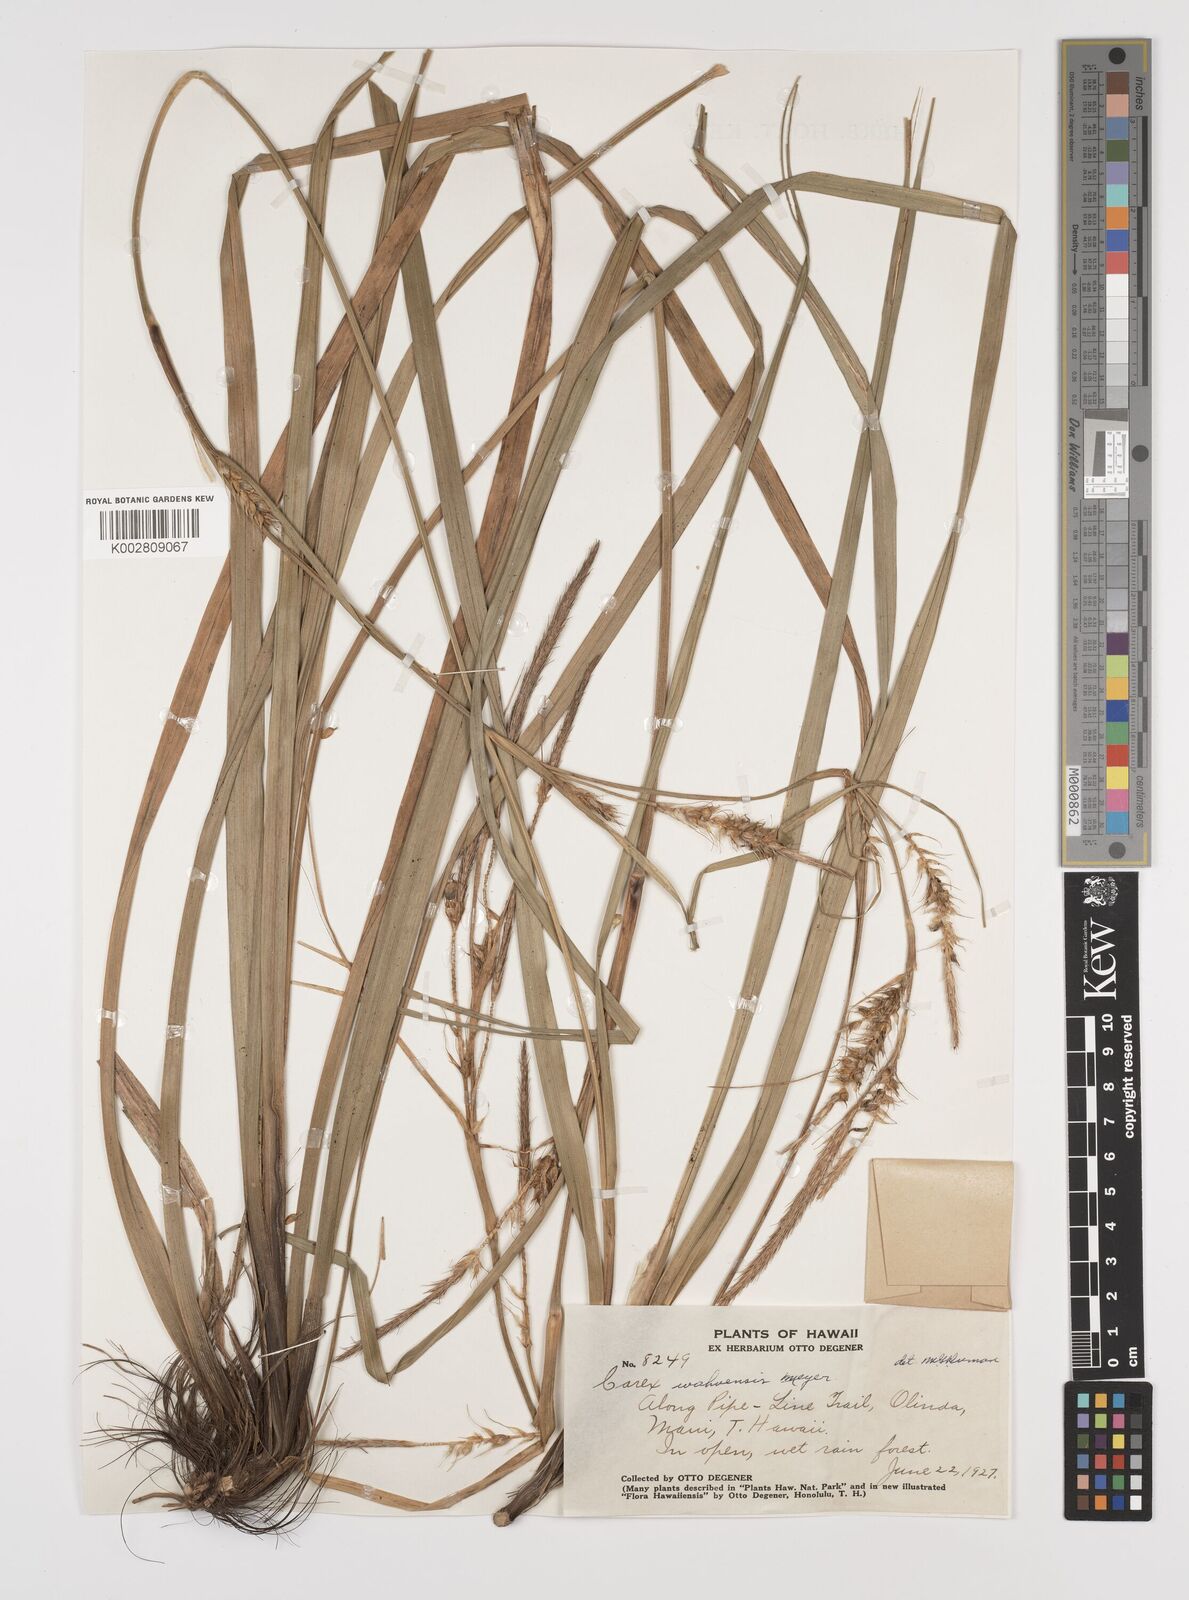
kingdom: Plantae
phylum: Tracheophyta
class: Liliopsida
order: Poales
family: Cyperaceae
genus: Carex
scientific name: Carex wahuensis
